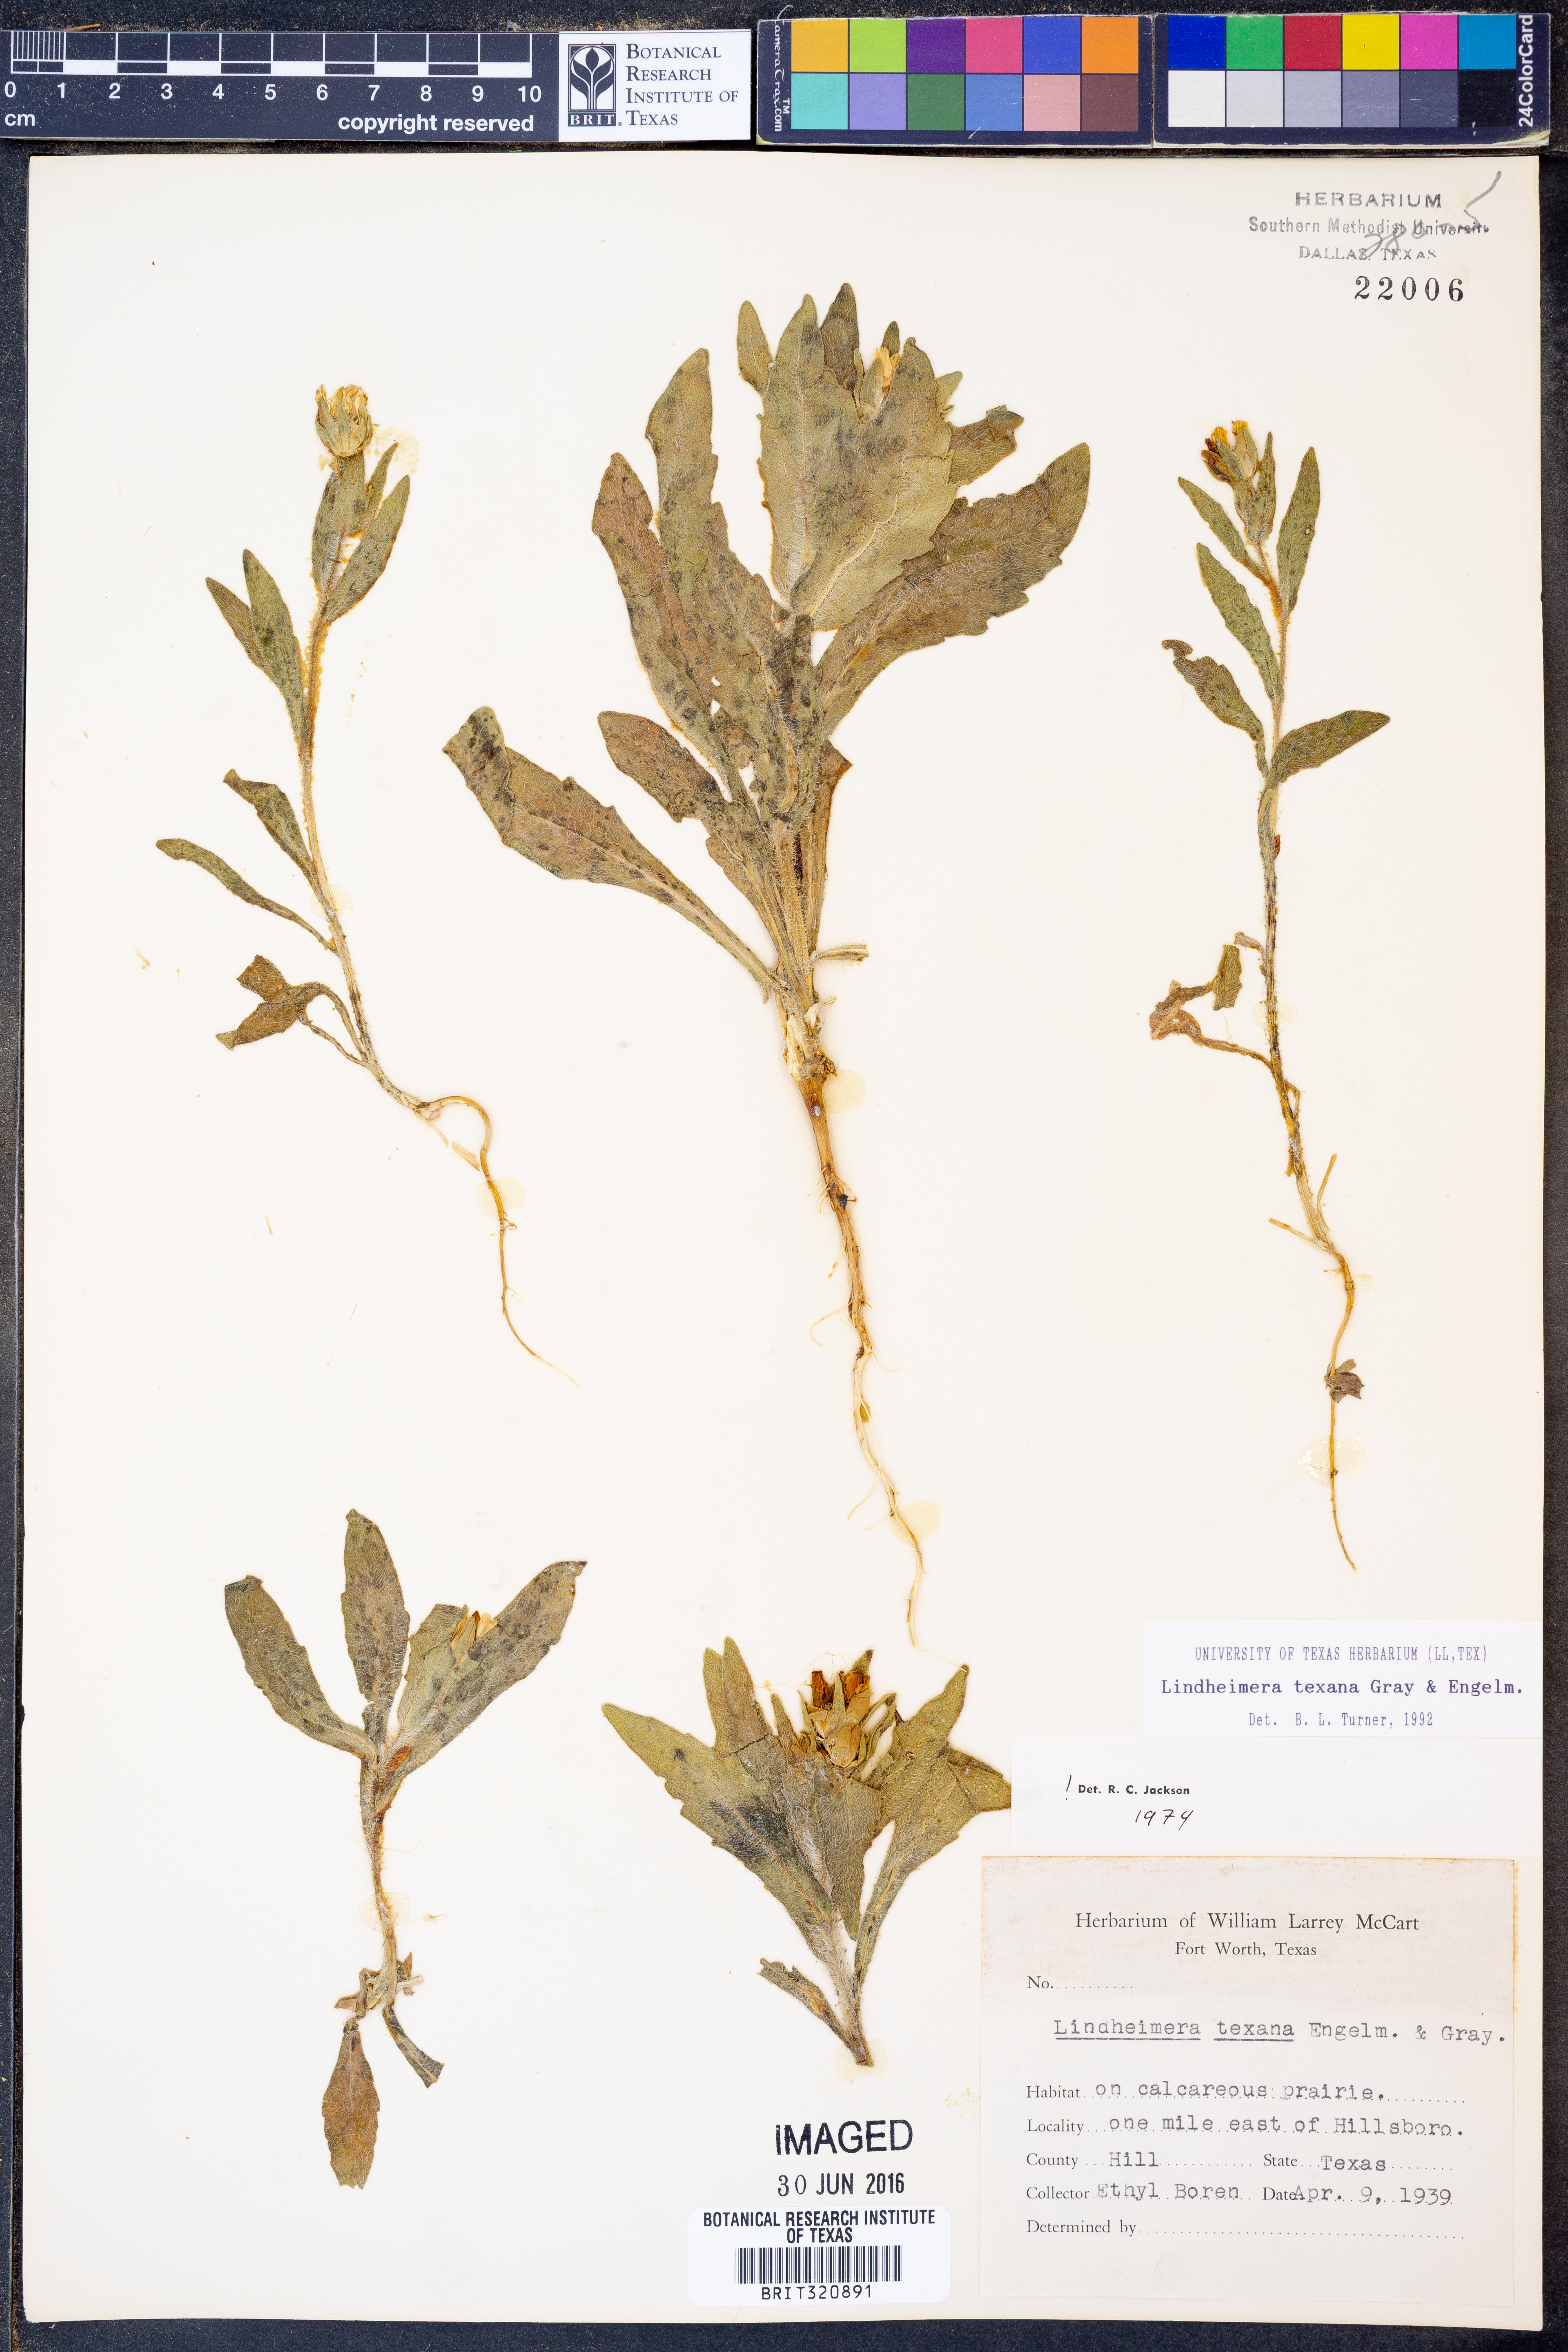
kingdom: Plantae
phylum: Tracheophyta
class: Magnoliopsida
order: Asterales
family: Asteraceae
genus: Lindheimera
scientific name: Lindheimera texana
